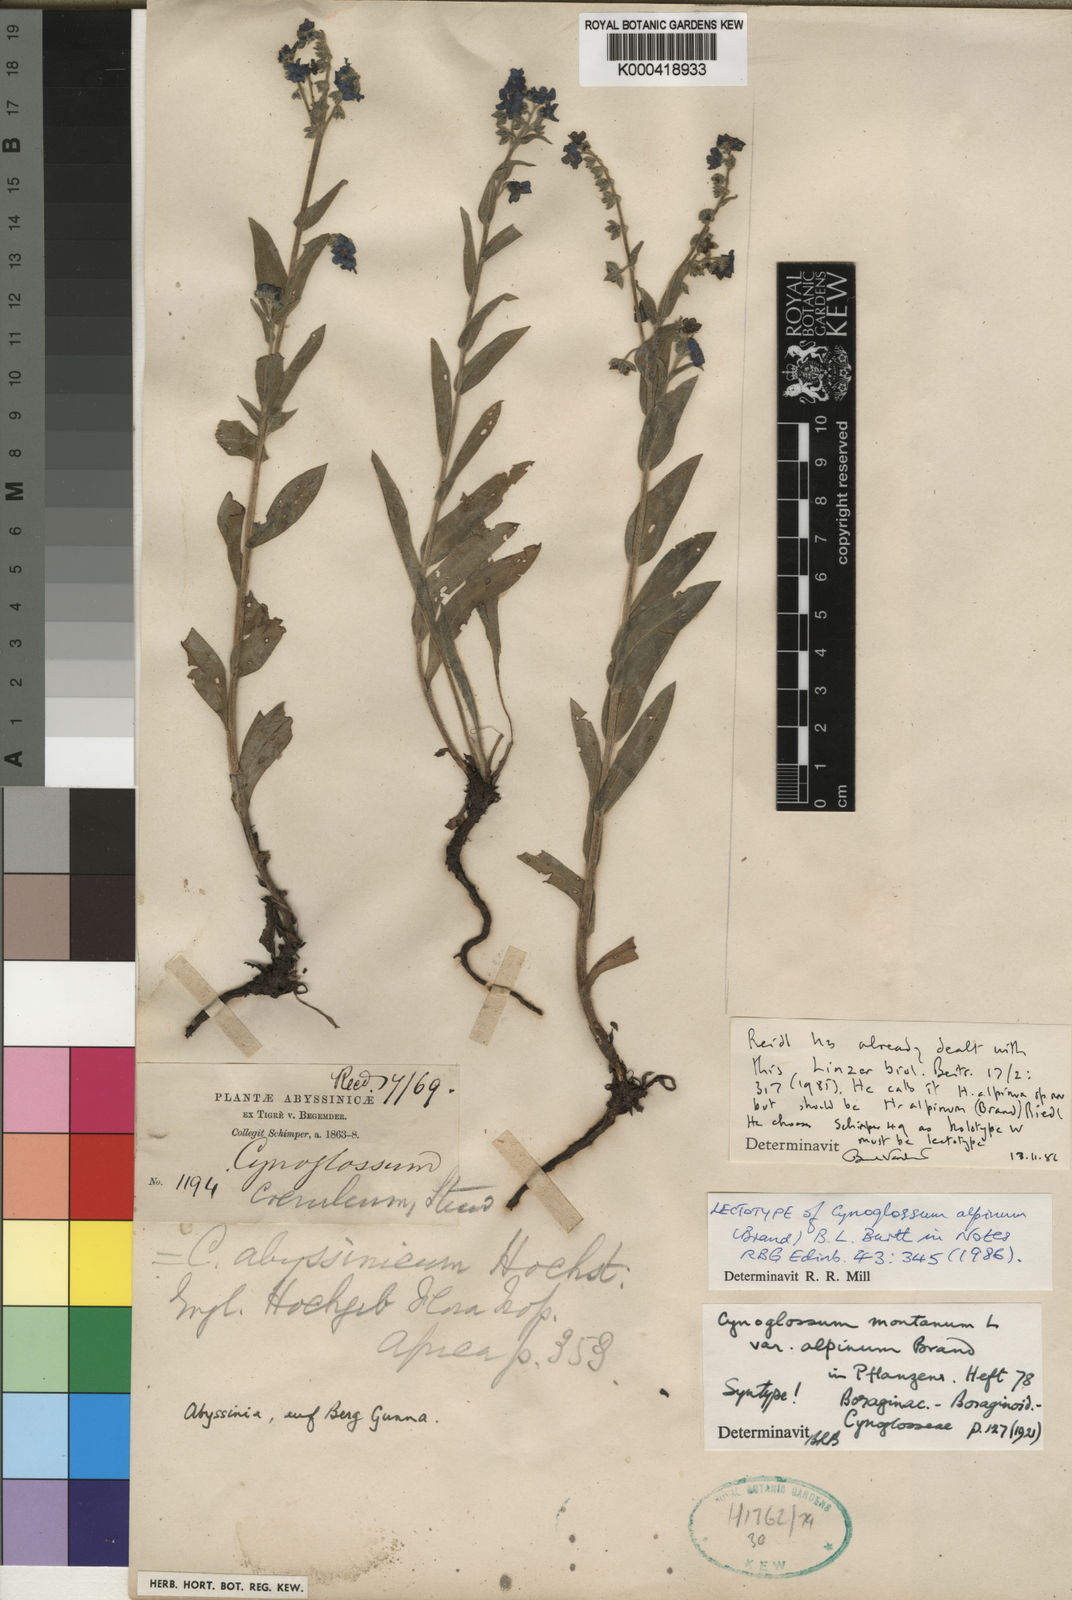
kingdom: Plantae
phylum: Tracheophyta
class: Magnoliopsida
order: Boraginales
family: Boraginaceae
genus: Cynoglossum
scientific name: Cynoglossum
